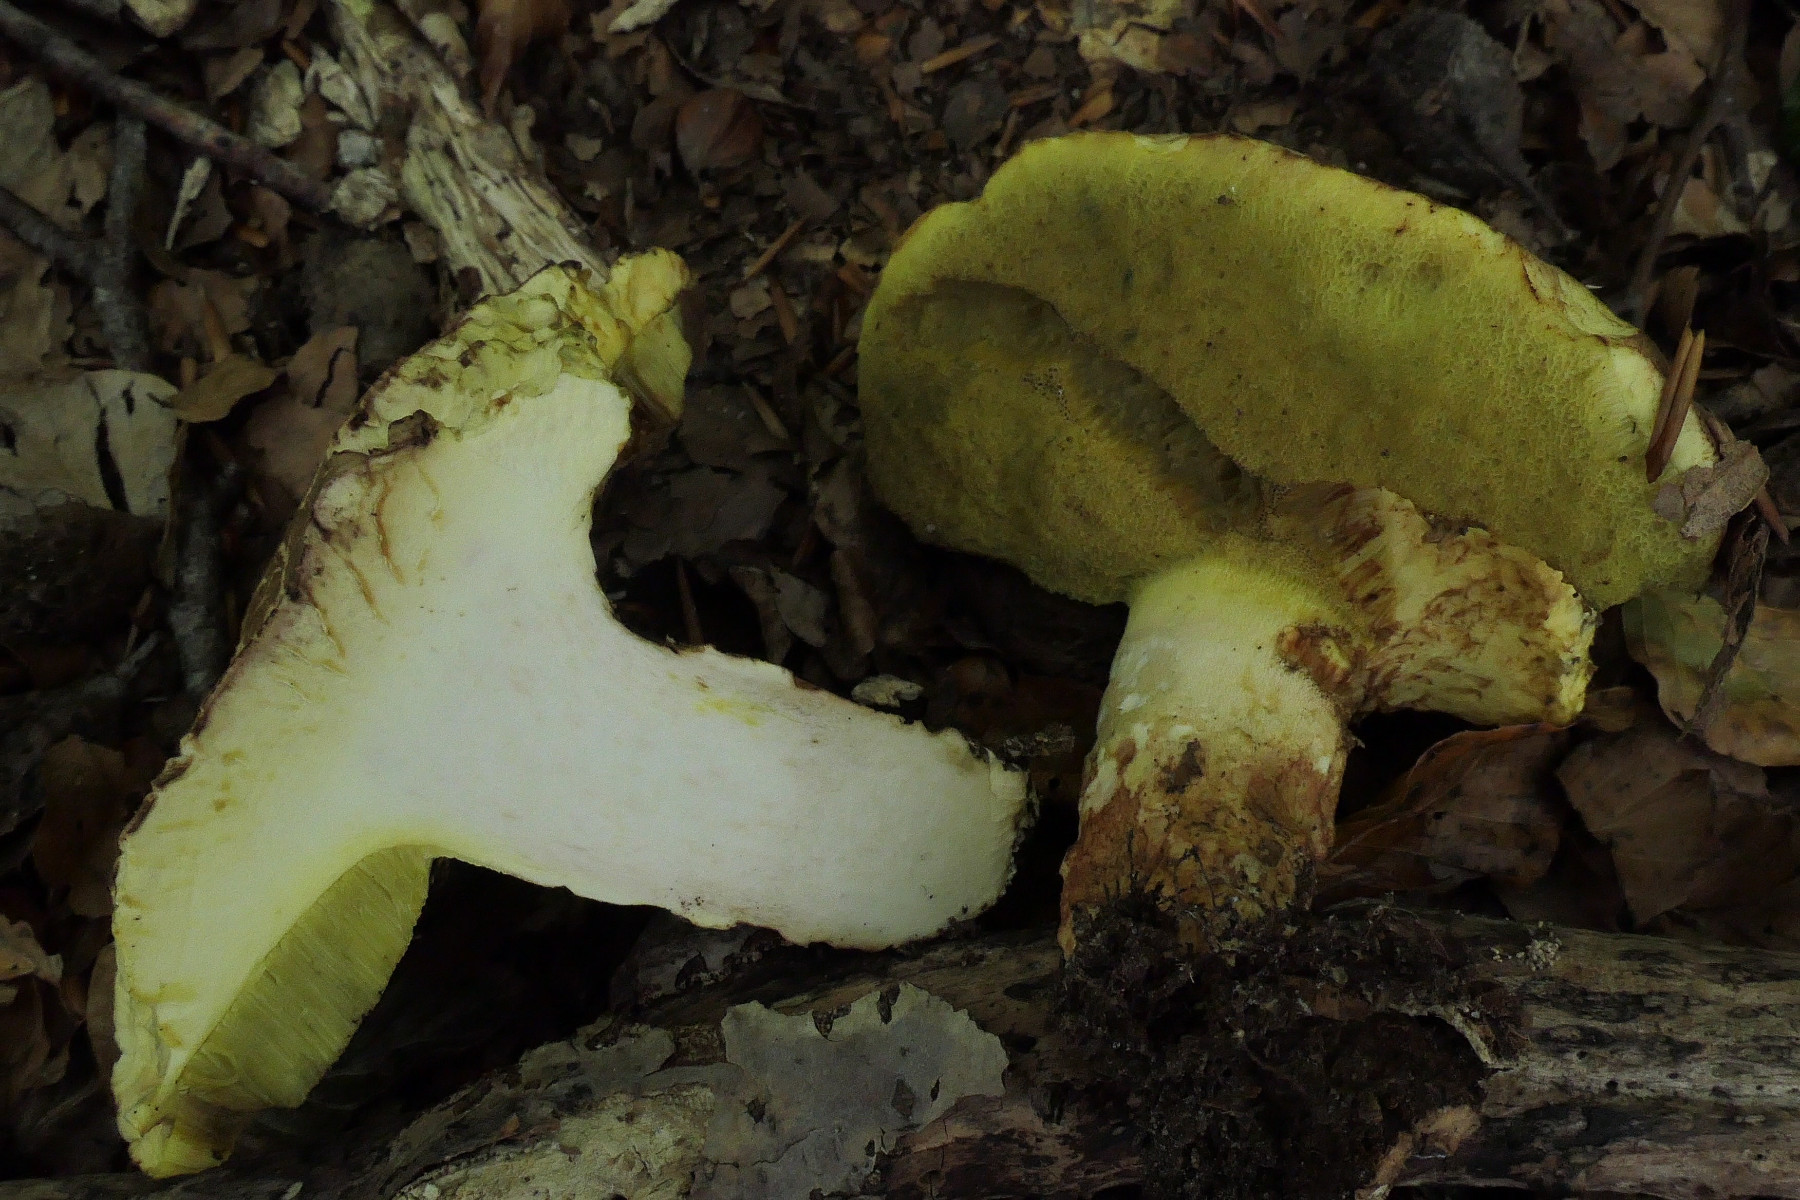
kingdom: Fungi
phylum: Basidiomycota
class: Agaricomycetes
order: Boletales
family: Boletaceae
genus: Butyriboletus
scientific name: Butyriboletus appendiculatus
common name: tenstokket rørhat
